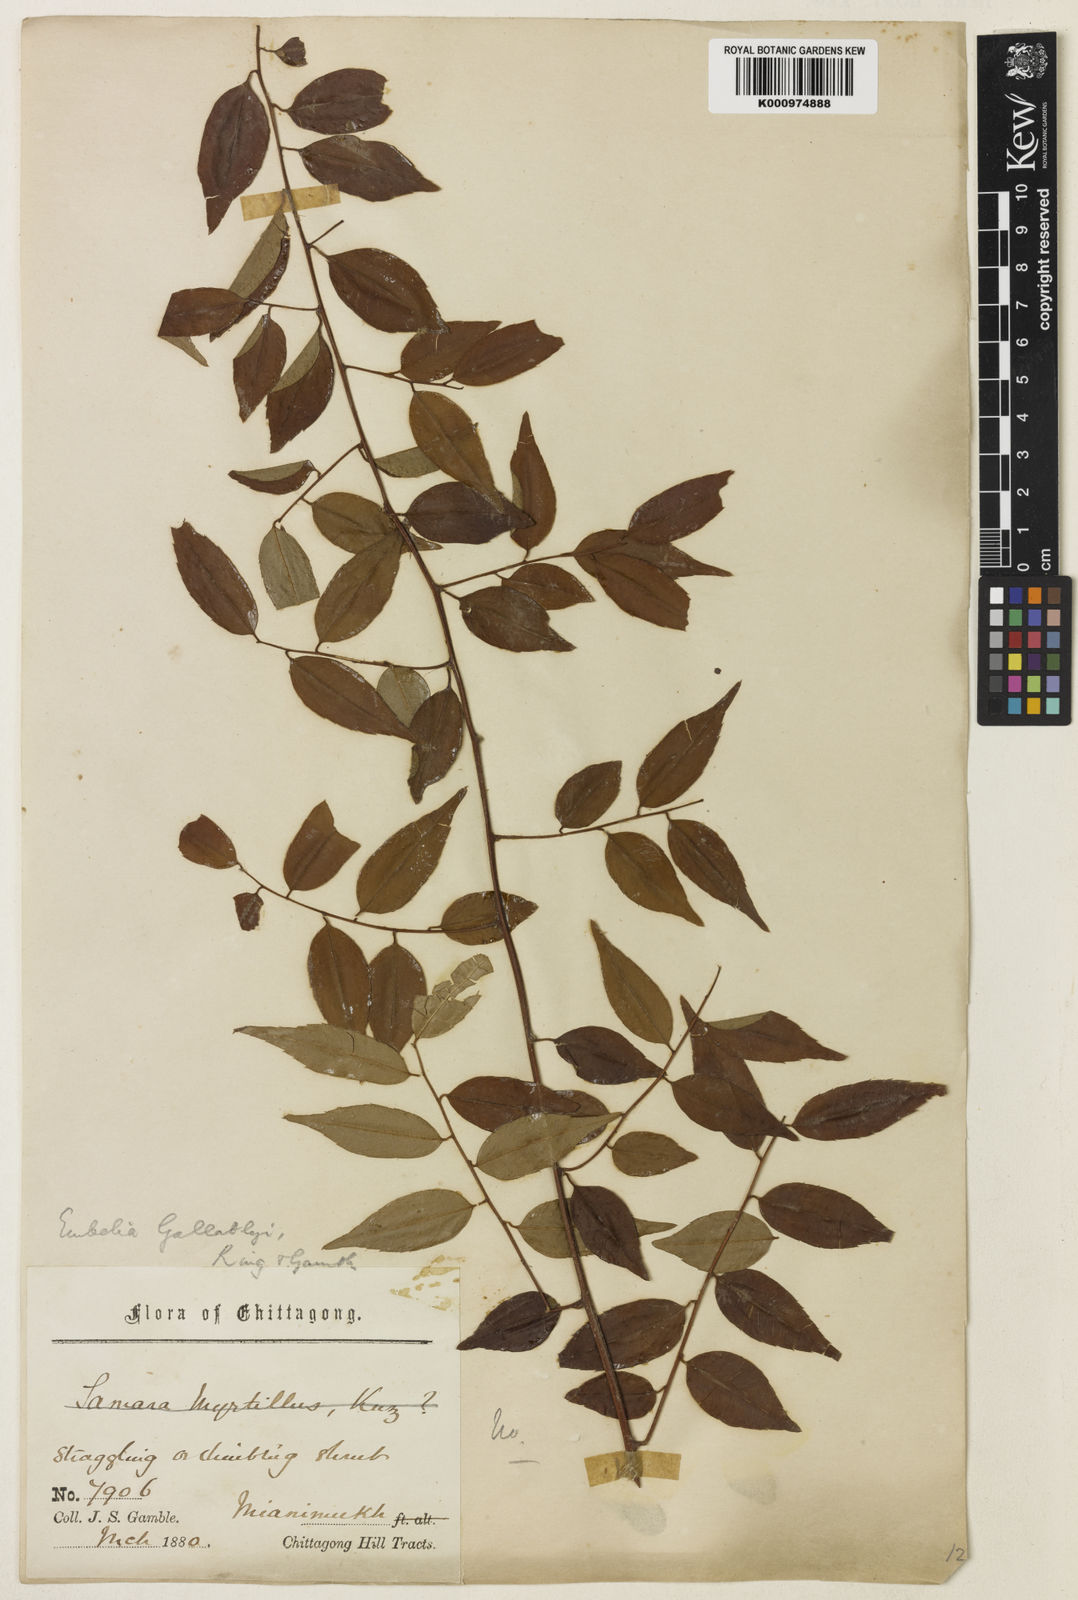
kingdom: Plantae
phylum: Tracheophyta
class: Magnoliopsida
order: Ericales
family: Primulaceae
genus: Embelia
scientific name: Embelia gallatlyi
